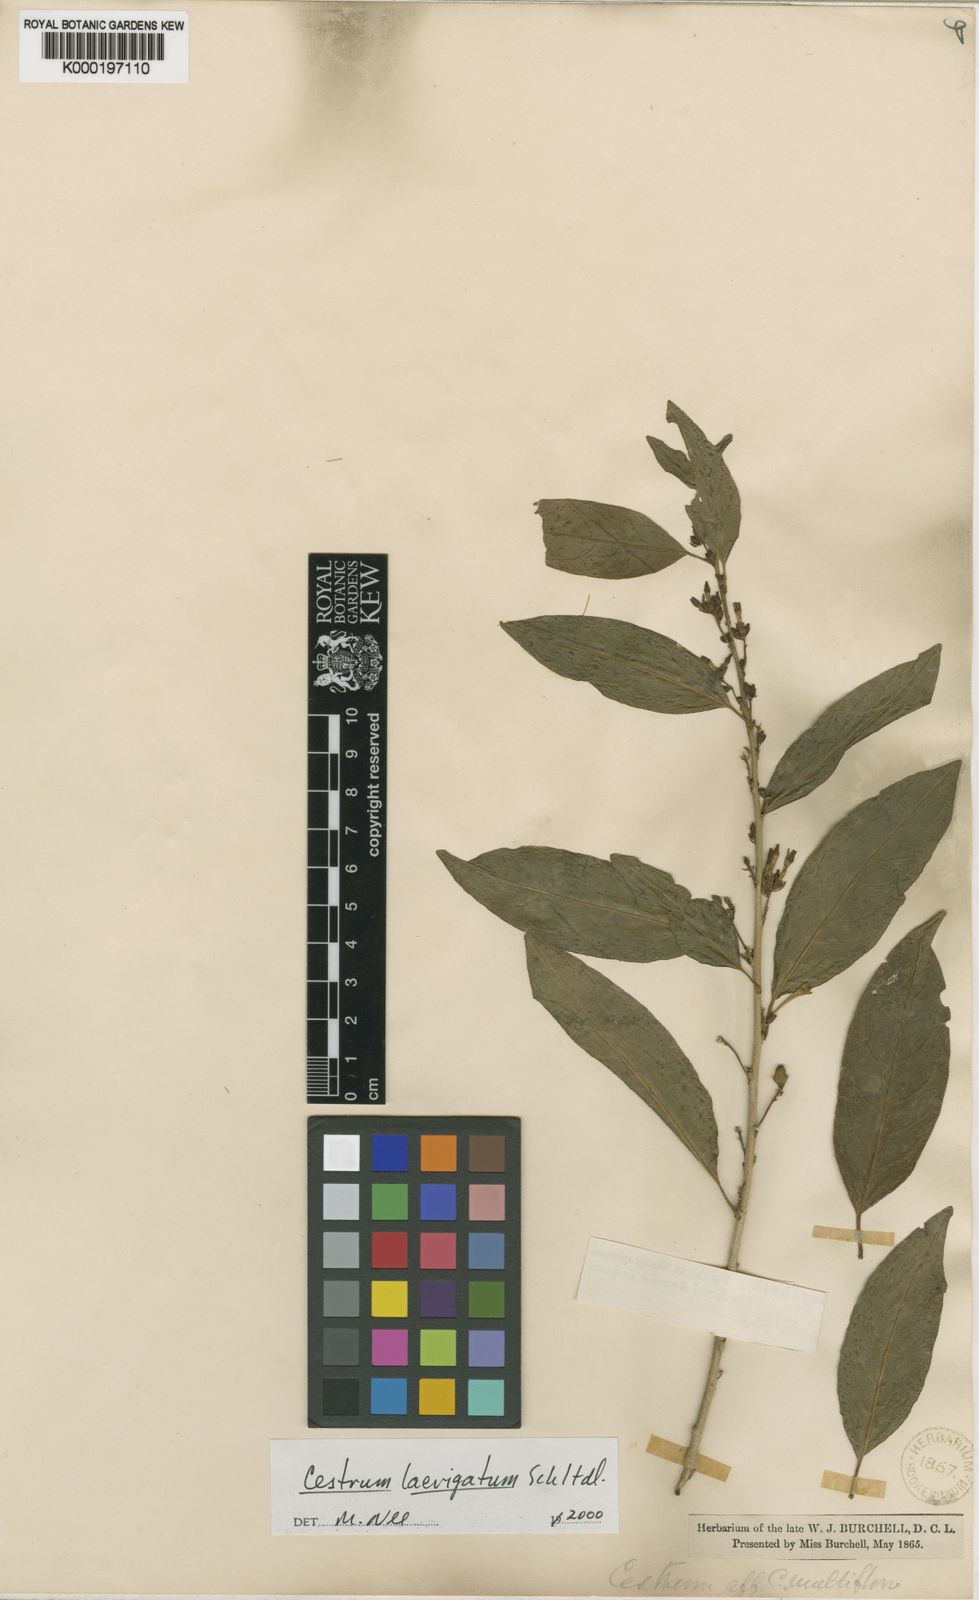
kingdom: Plantae
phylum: Tracheophyta
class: Magnoliopsida
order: Solanales
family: Solanaceae
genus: Cestrum
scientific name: Cestrum laevigatum
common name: Inkberry
